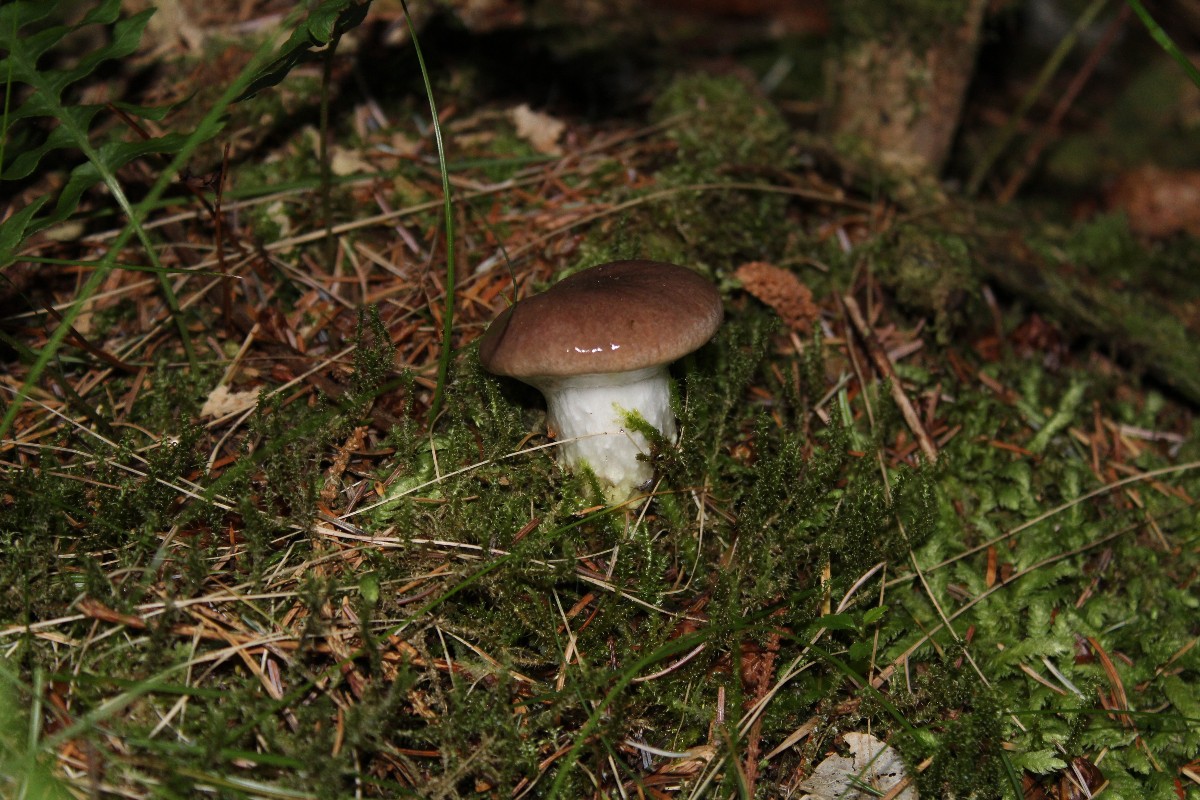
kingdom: Fungi
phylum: Basidiomycota
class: Agaricomycetes
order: Boletales
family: Gomphidiaceae
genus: Gomphidius
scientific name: Gomphidius glutinosus
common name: grå slimslør
